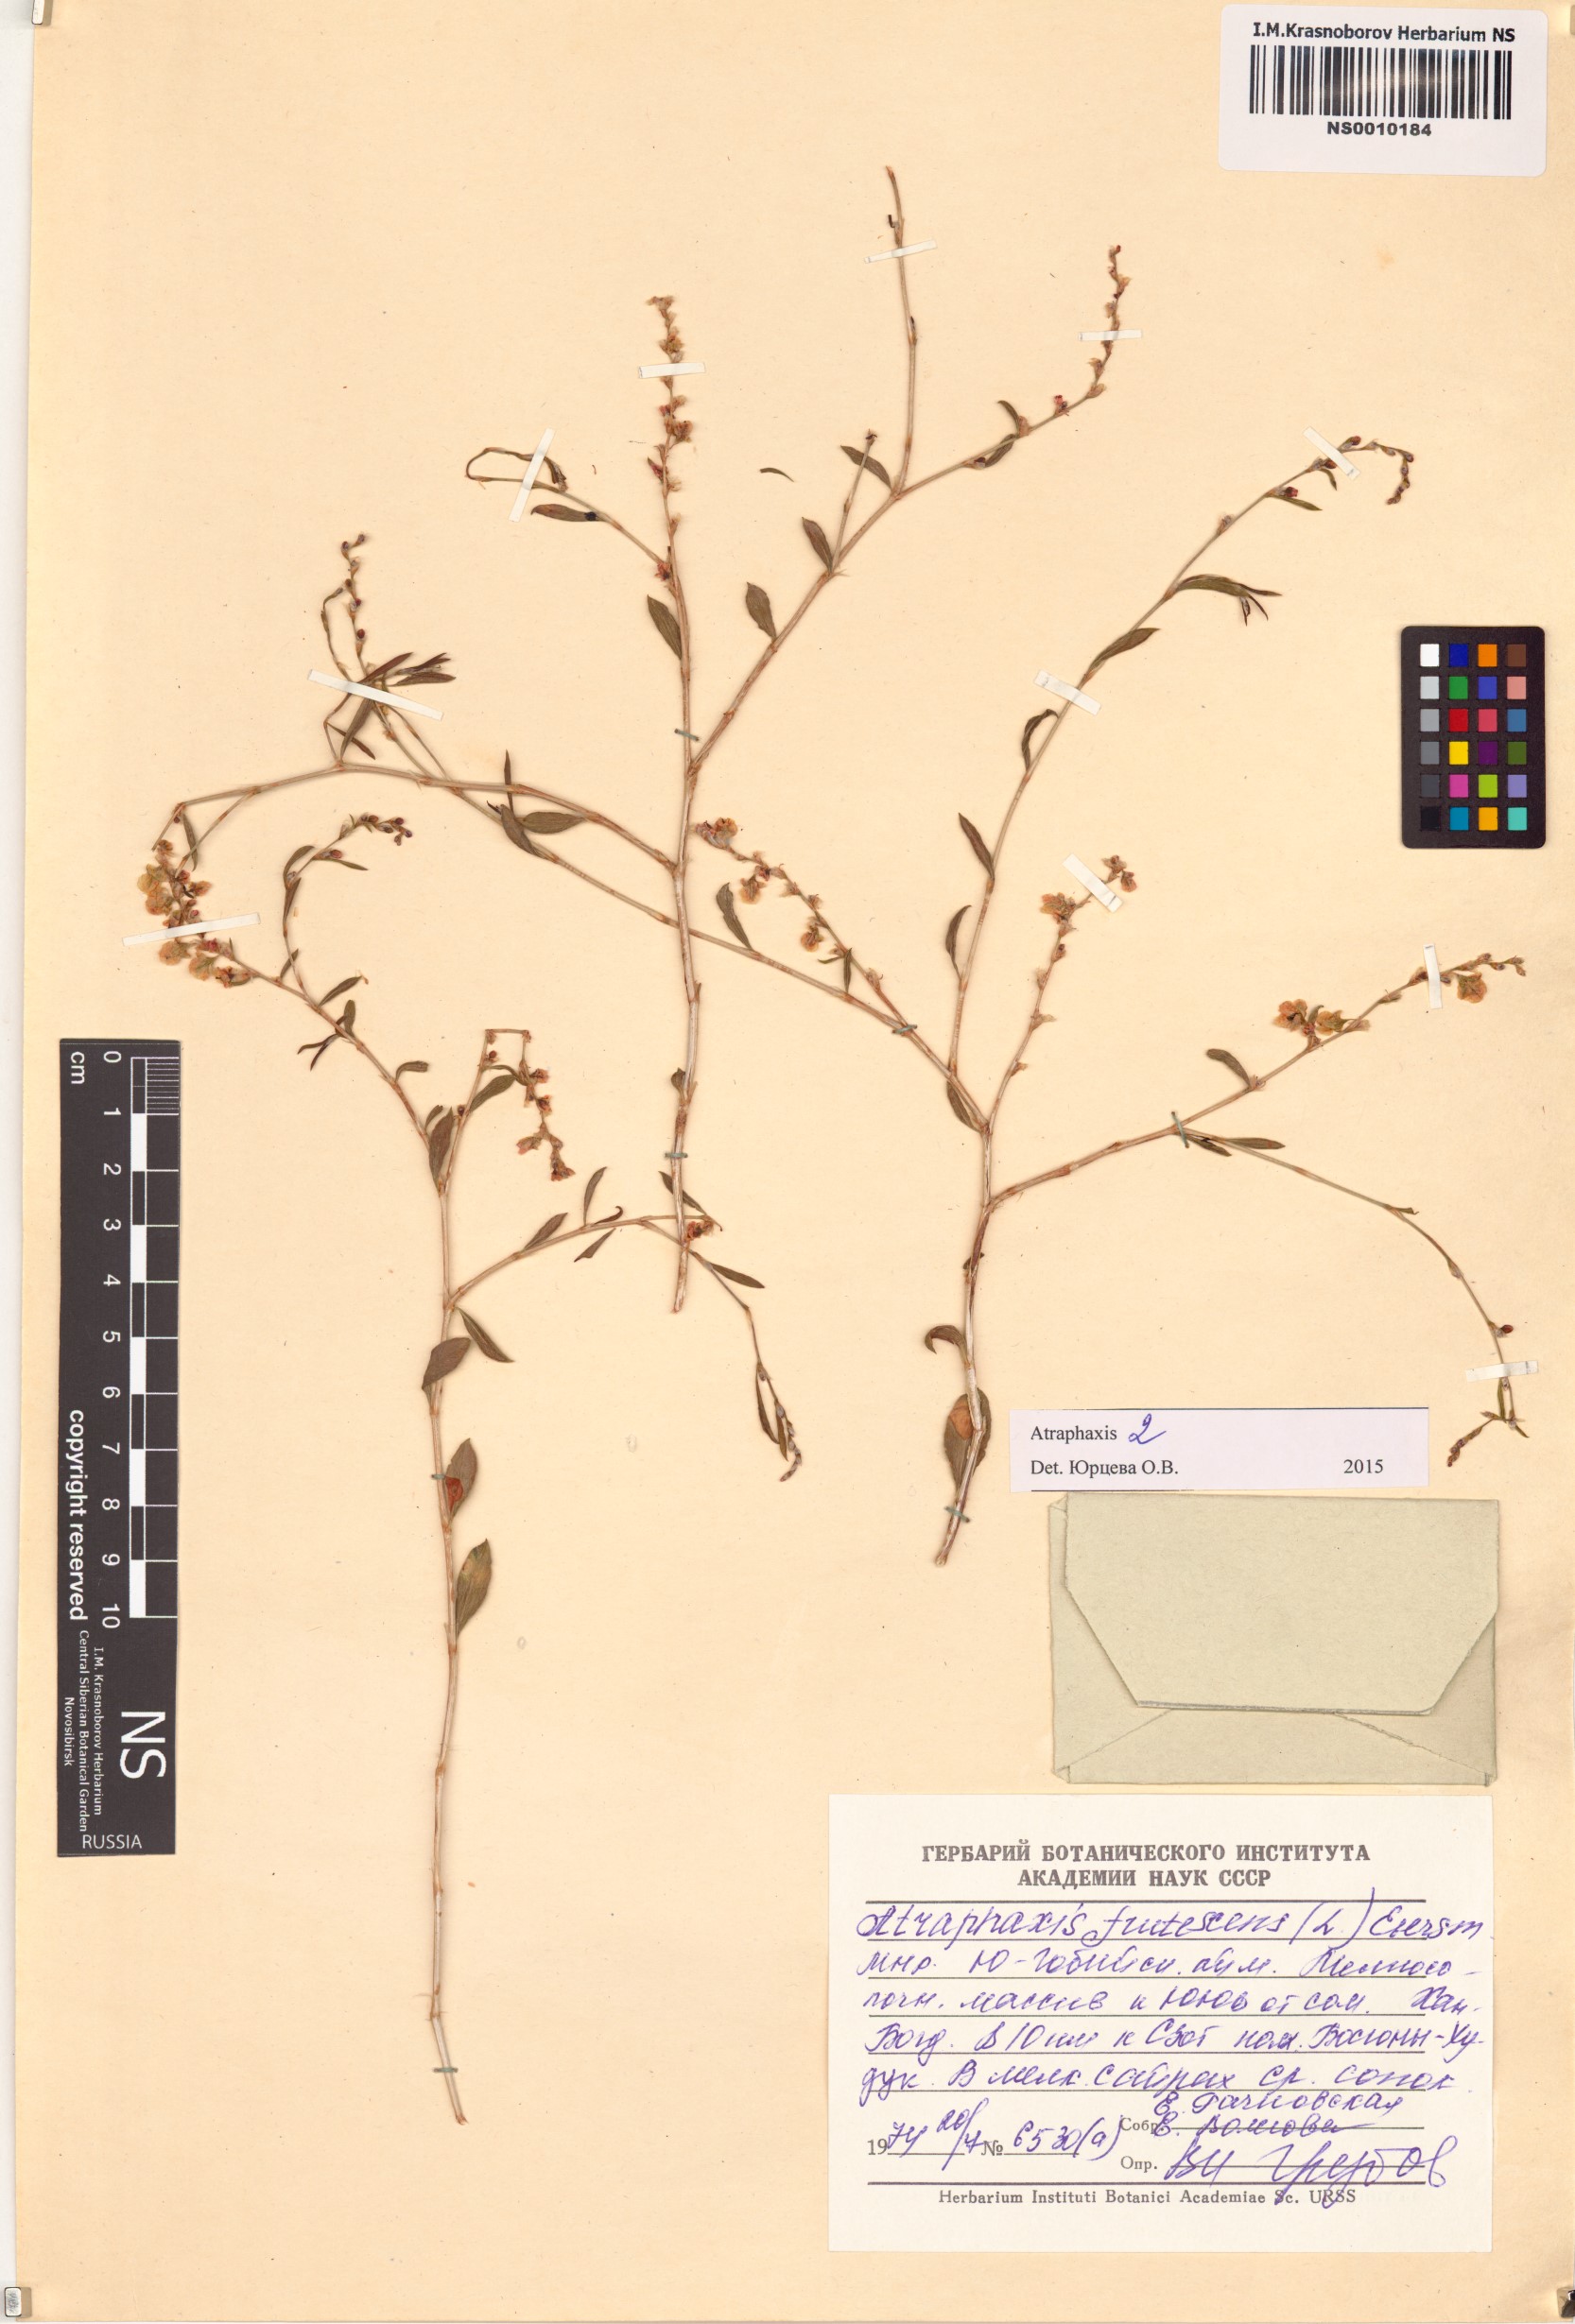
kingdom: Plantae
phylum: Tracheophyta
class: Magnoliopsida
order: Caryophyllales
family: Polygonaceae
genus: Atraphaxis
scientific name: Atraphaxis frutescens
